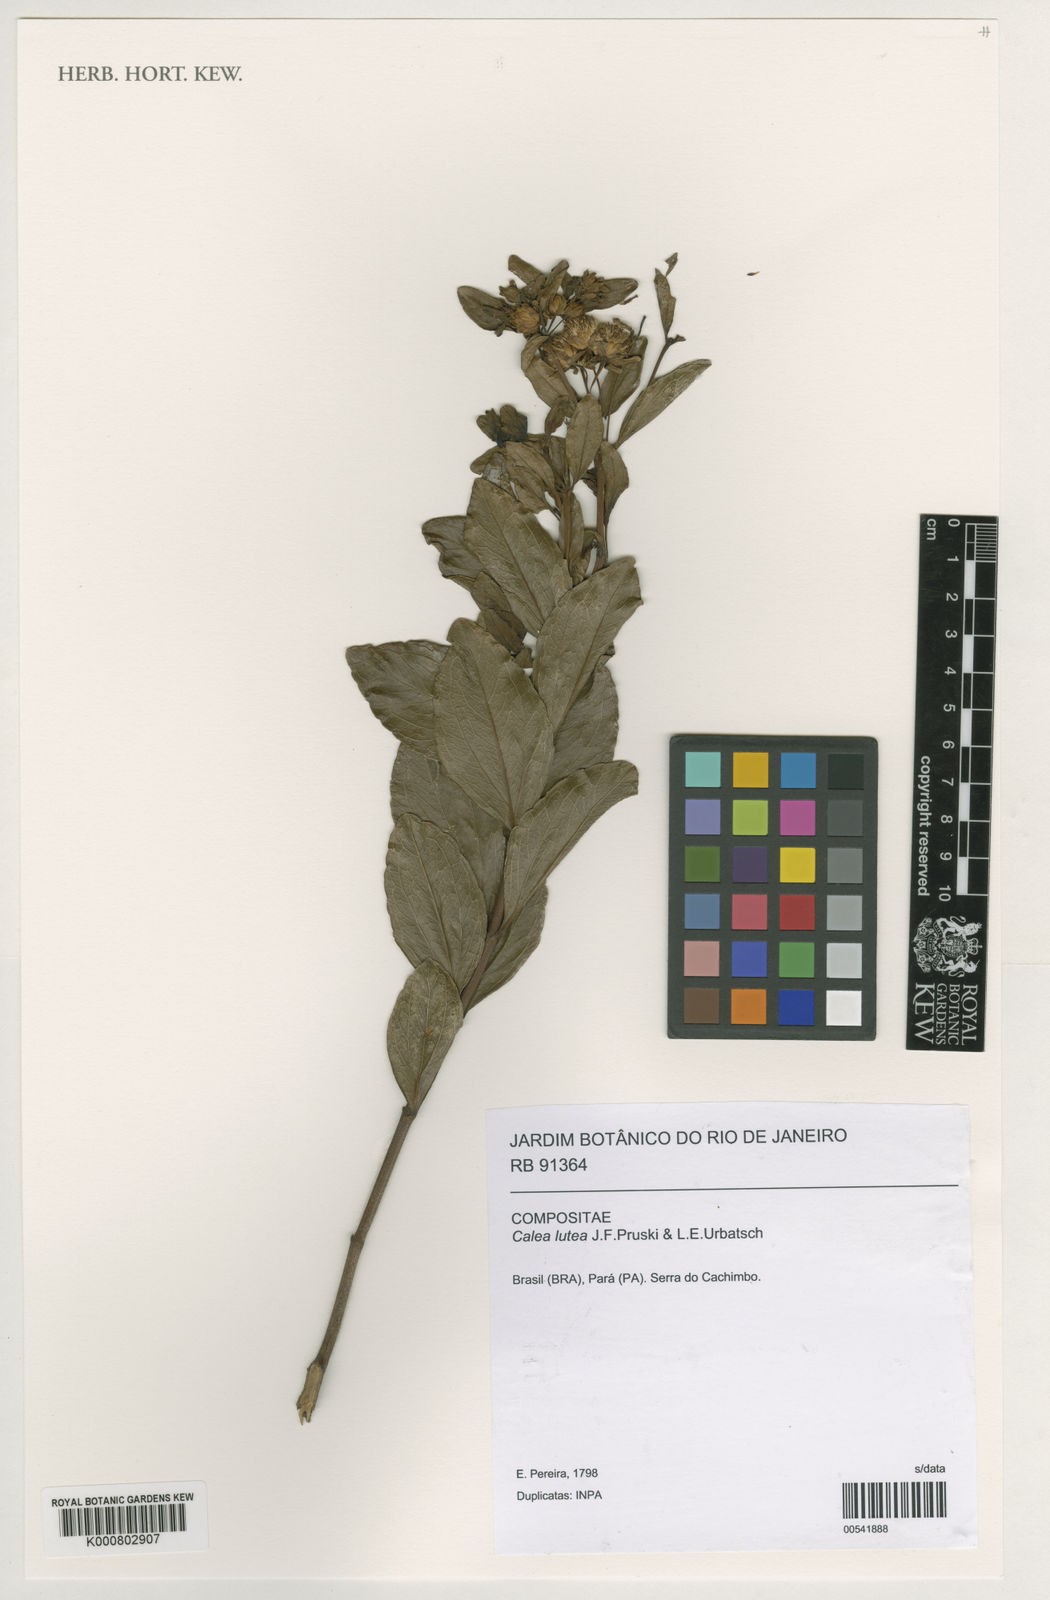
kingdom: Plantae
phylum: Tracheophyta
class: Magnoliopsida
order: Asterales
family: Asteraceae
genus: Calea
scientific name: Calea lutea
